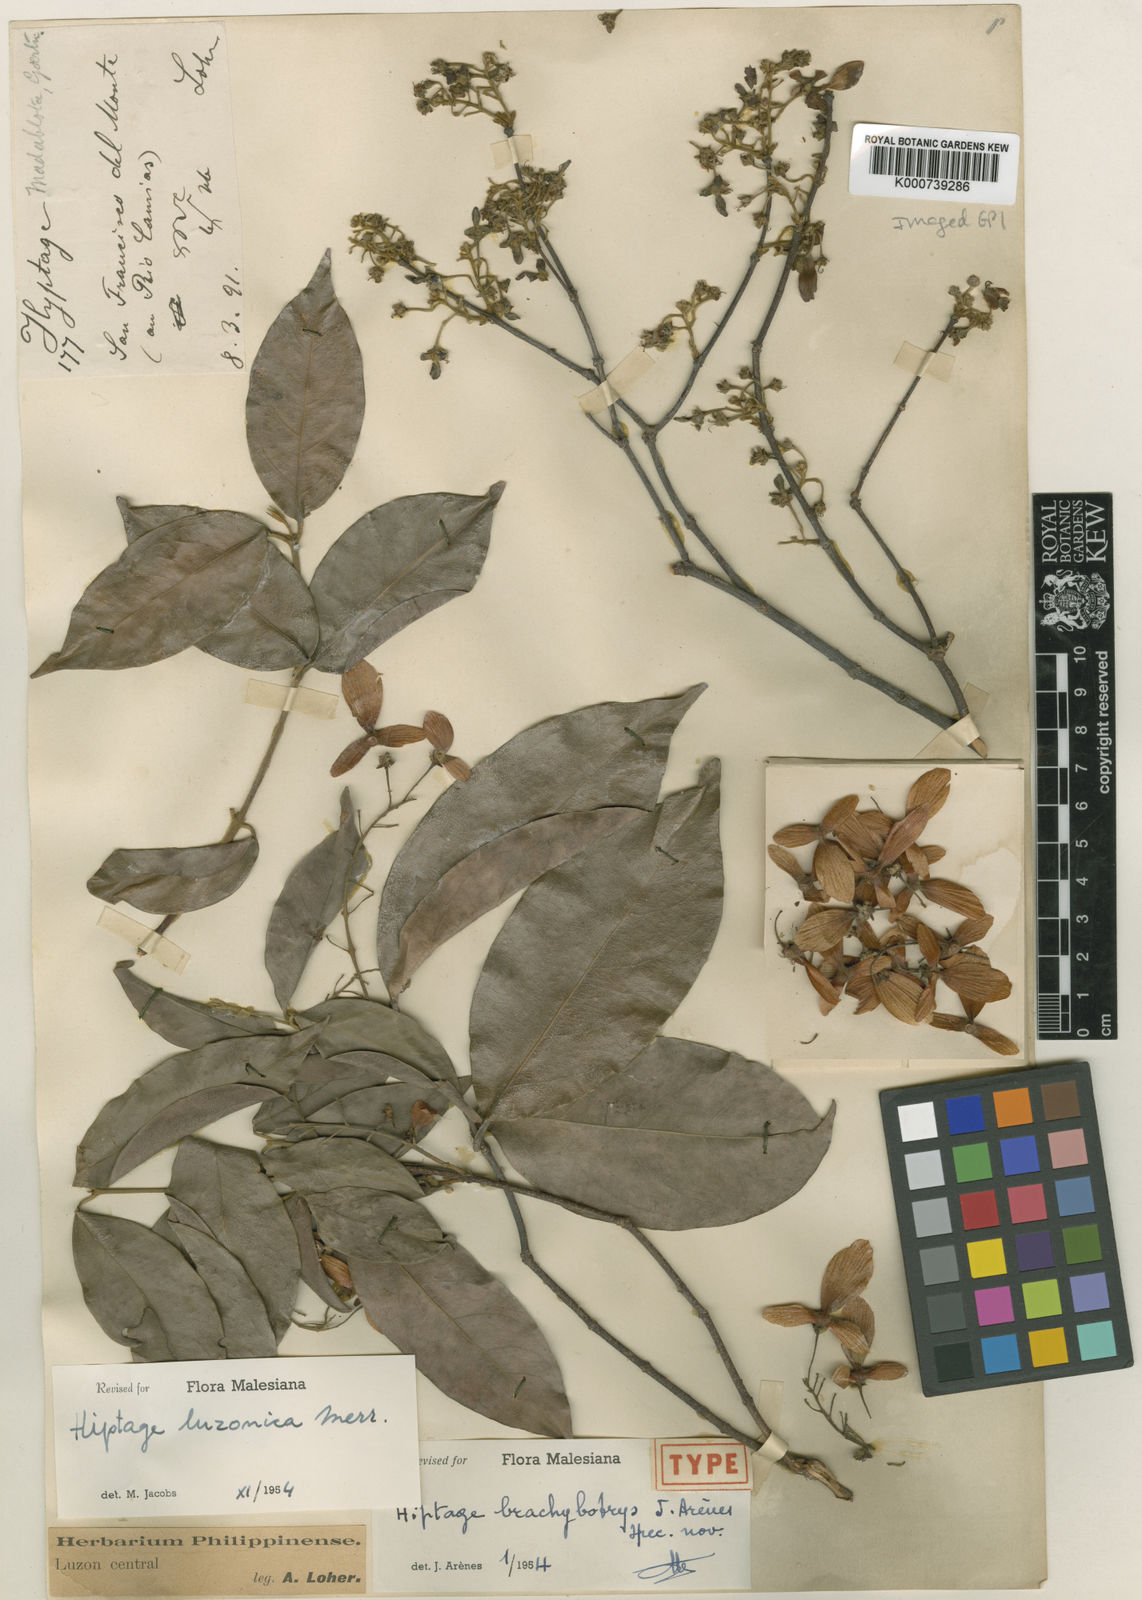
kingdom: Plantae
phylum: Tracheophyta
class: Magnoliopsida
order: Malpighiales
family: Malpighiaceae
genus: Hiptage
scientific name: Hiptage luzonica
